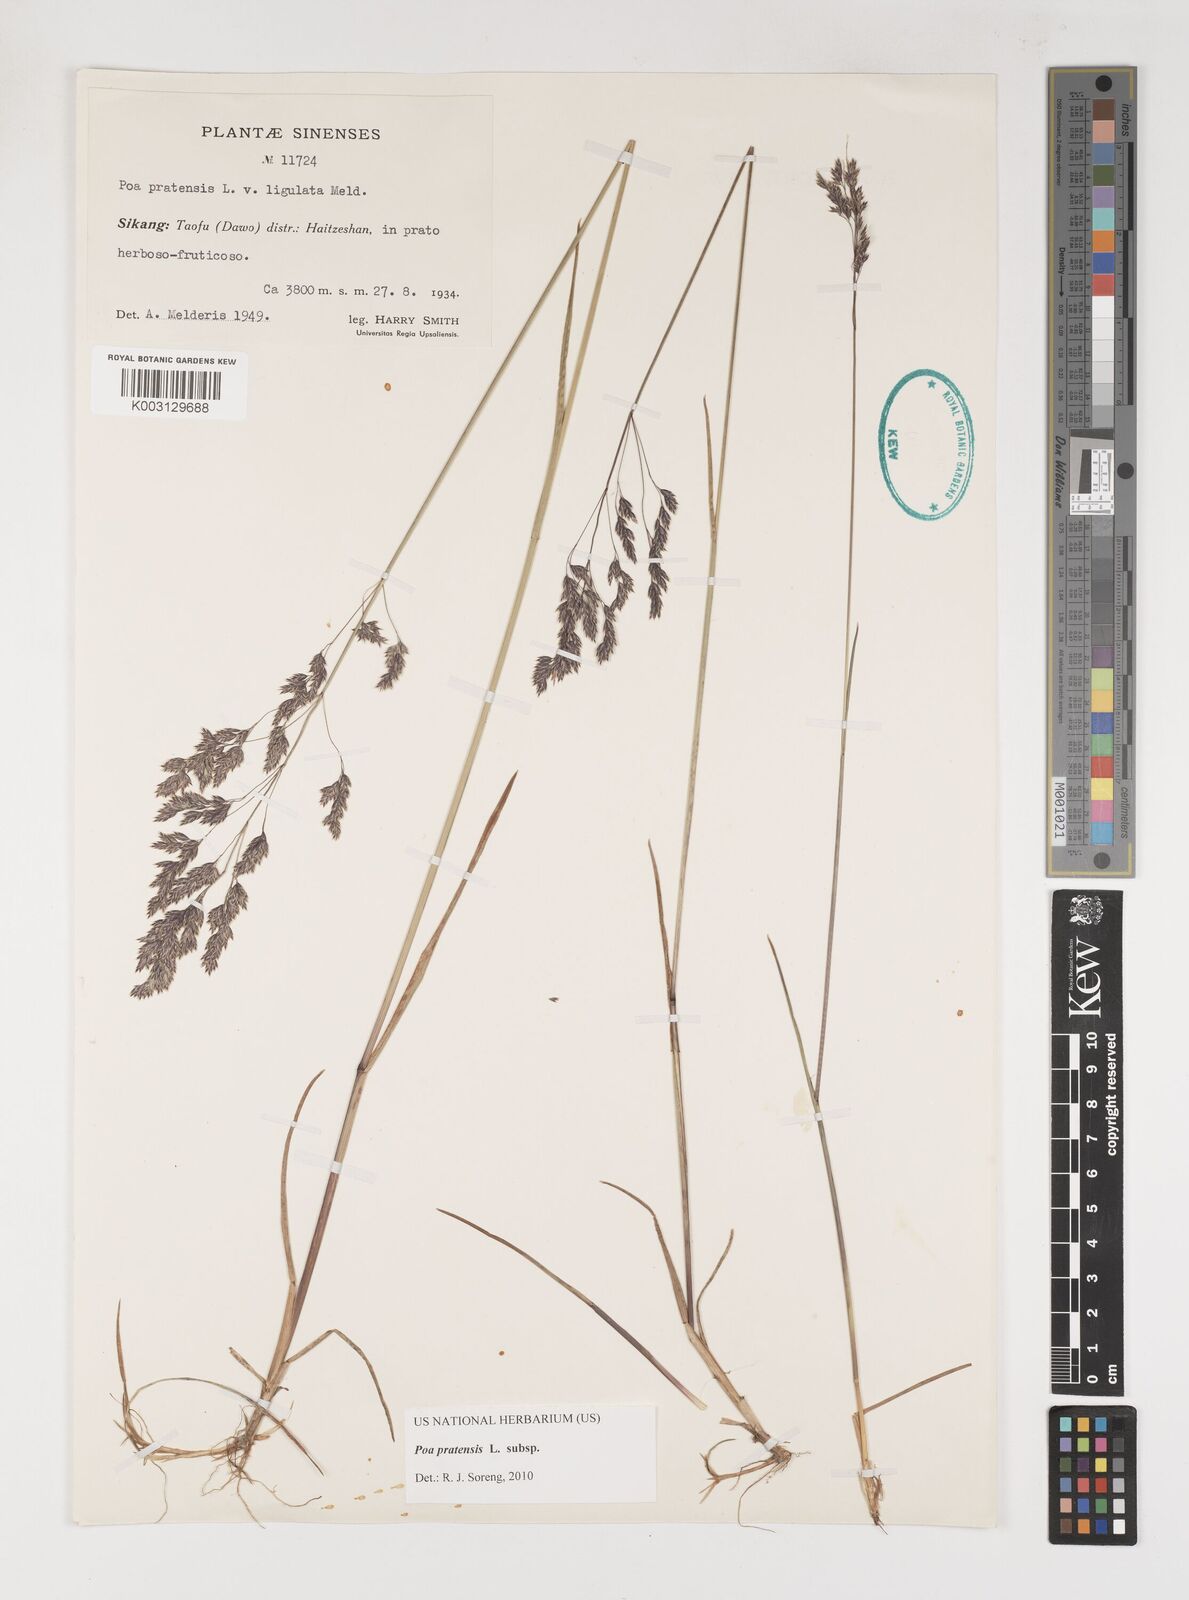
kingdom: Plantae
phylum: Tracheophyta
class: Liliopsida
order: Poales
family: Poaceae
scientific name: Poaceae
